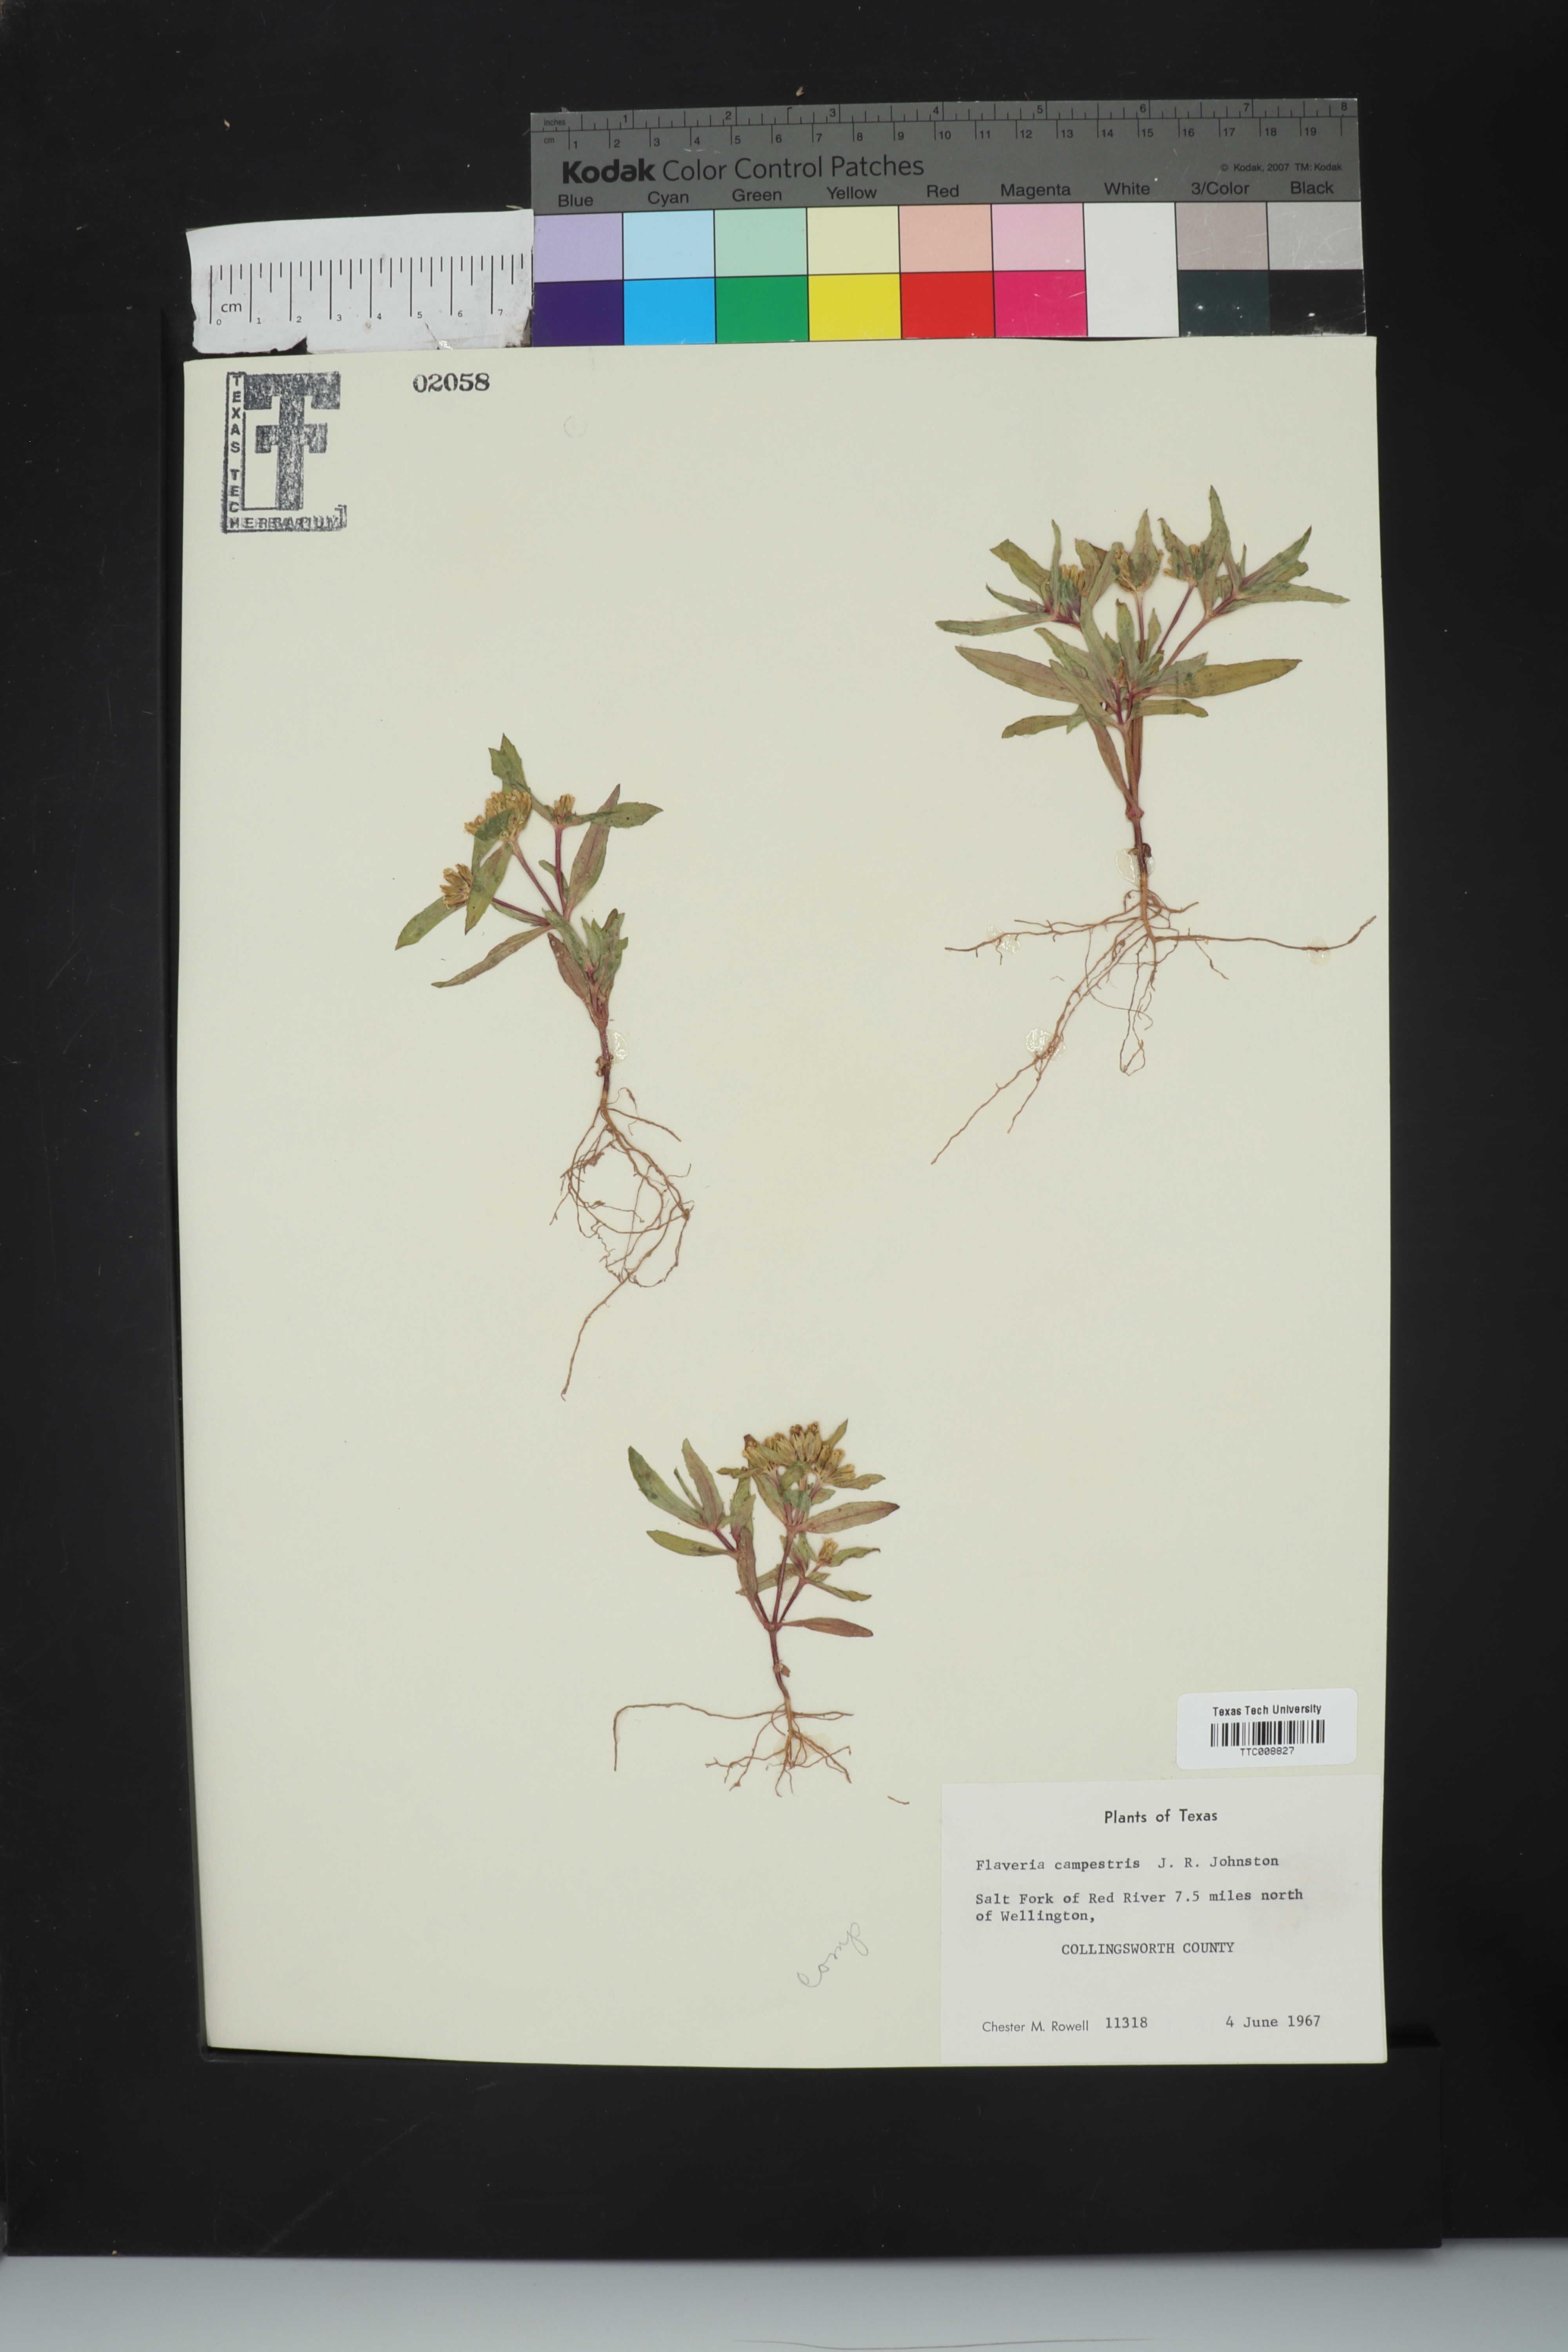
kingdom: Plantae
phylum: Tracheophyta
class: Magnoliopsida
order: Asterales
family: Asteraceae
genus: Flaveria
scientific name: Flaveria campestris
